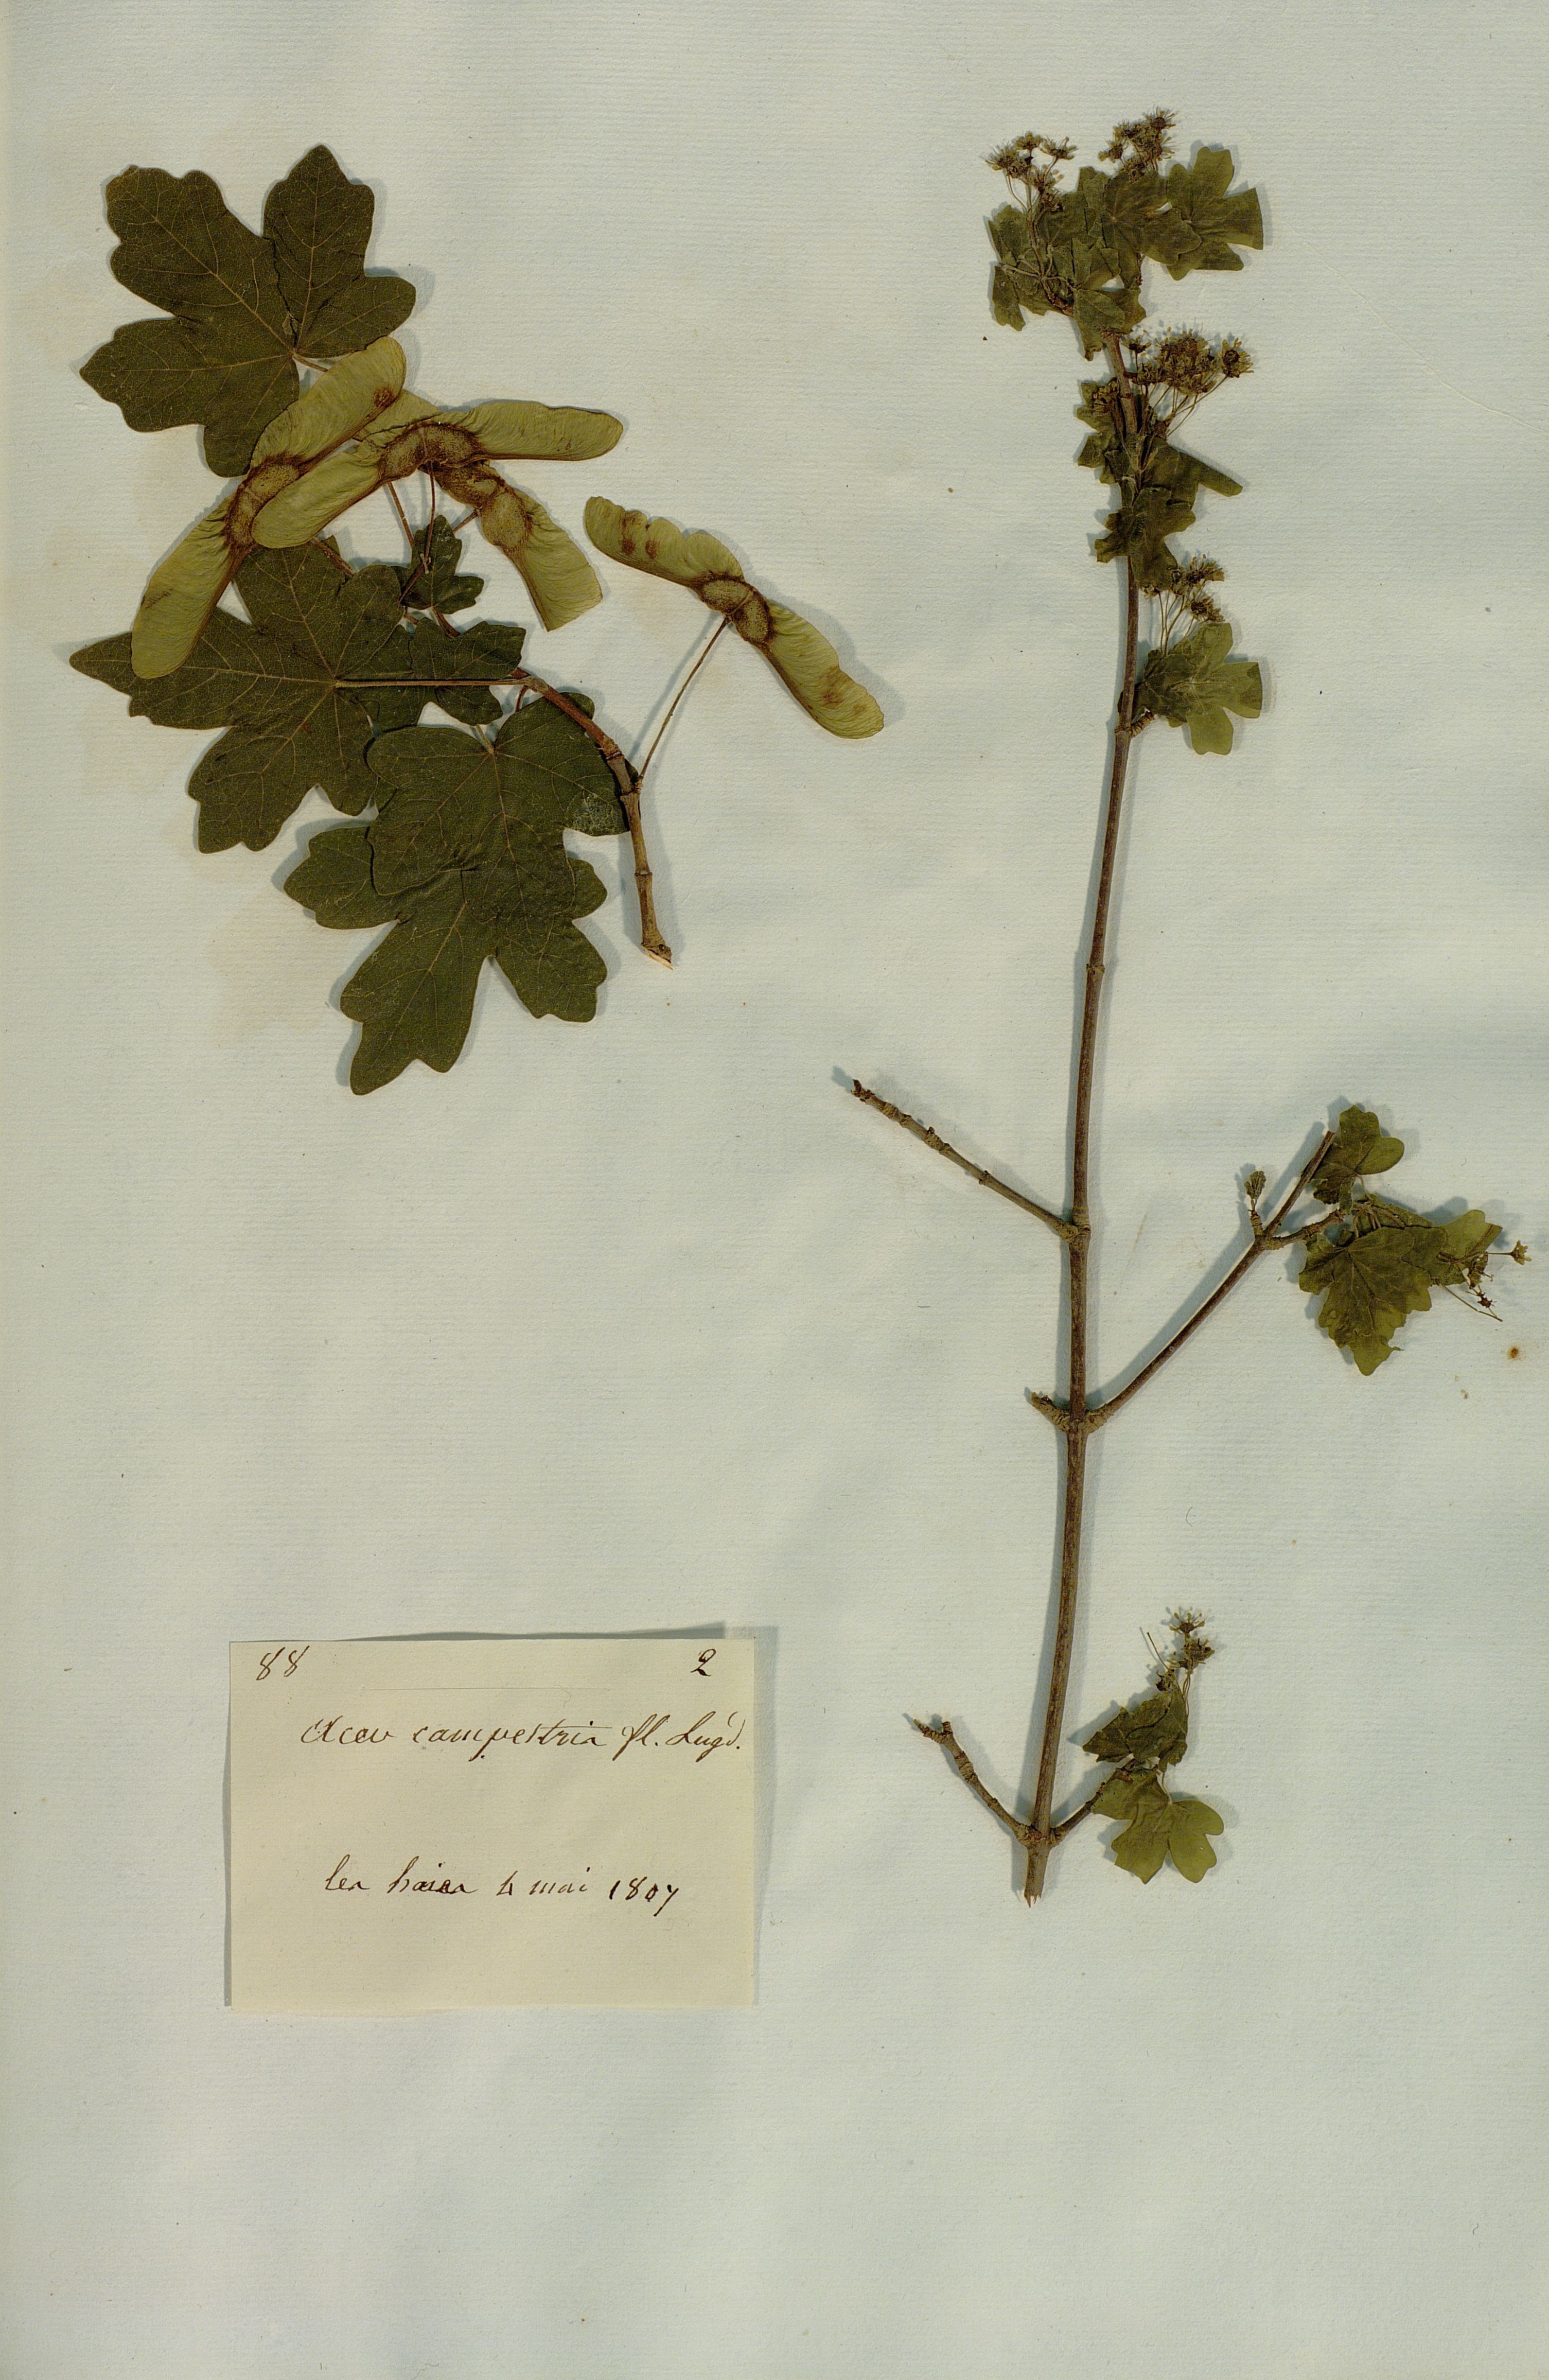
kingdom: Plantae
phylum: Tracheophyta
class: Magnoliopsida
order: Sapindales
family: Sapindaceae
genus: Acer
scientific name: Acer campestre
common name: Field maple
